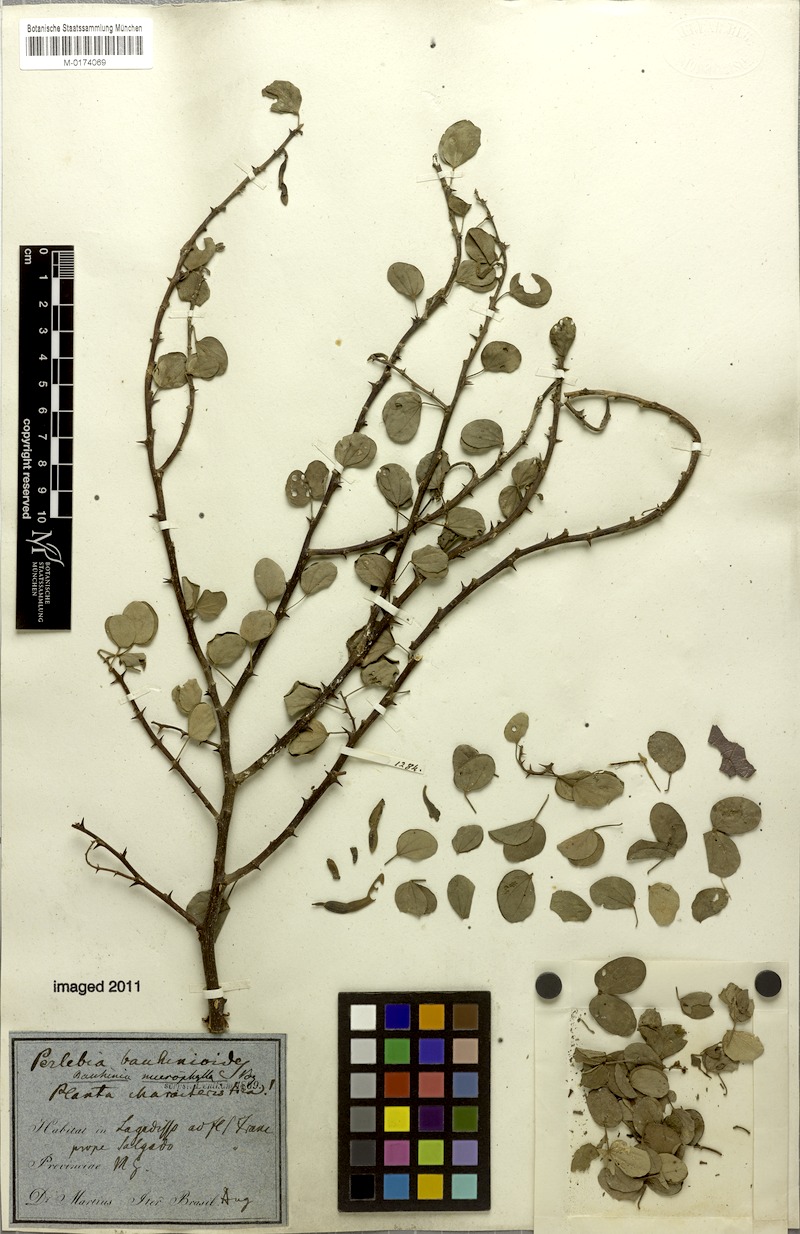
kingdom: Plantae
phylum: Tracheophyta
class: Magnoliopsida
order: Fabales
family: Fabaceae
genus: Bauhinia
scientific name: Bauhinia bauhinioides
